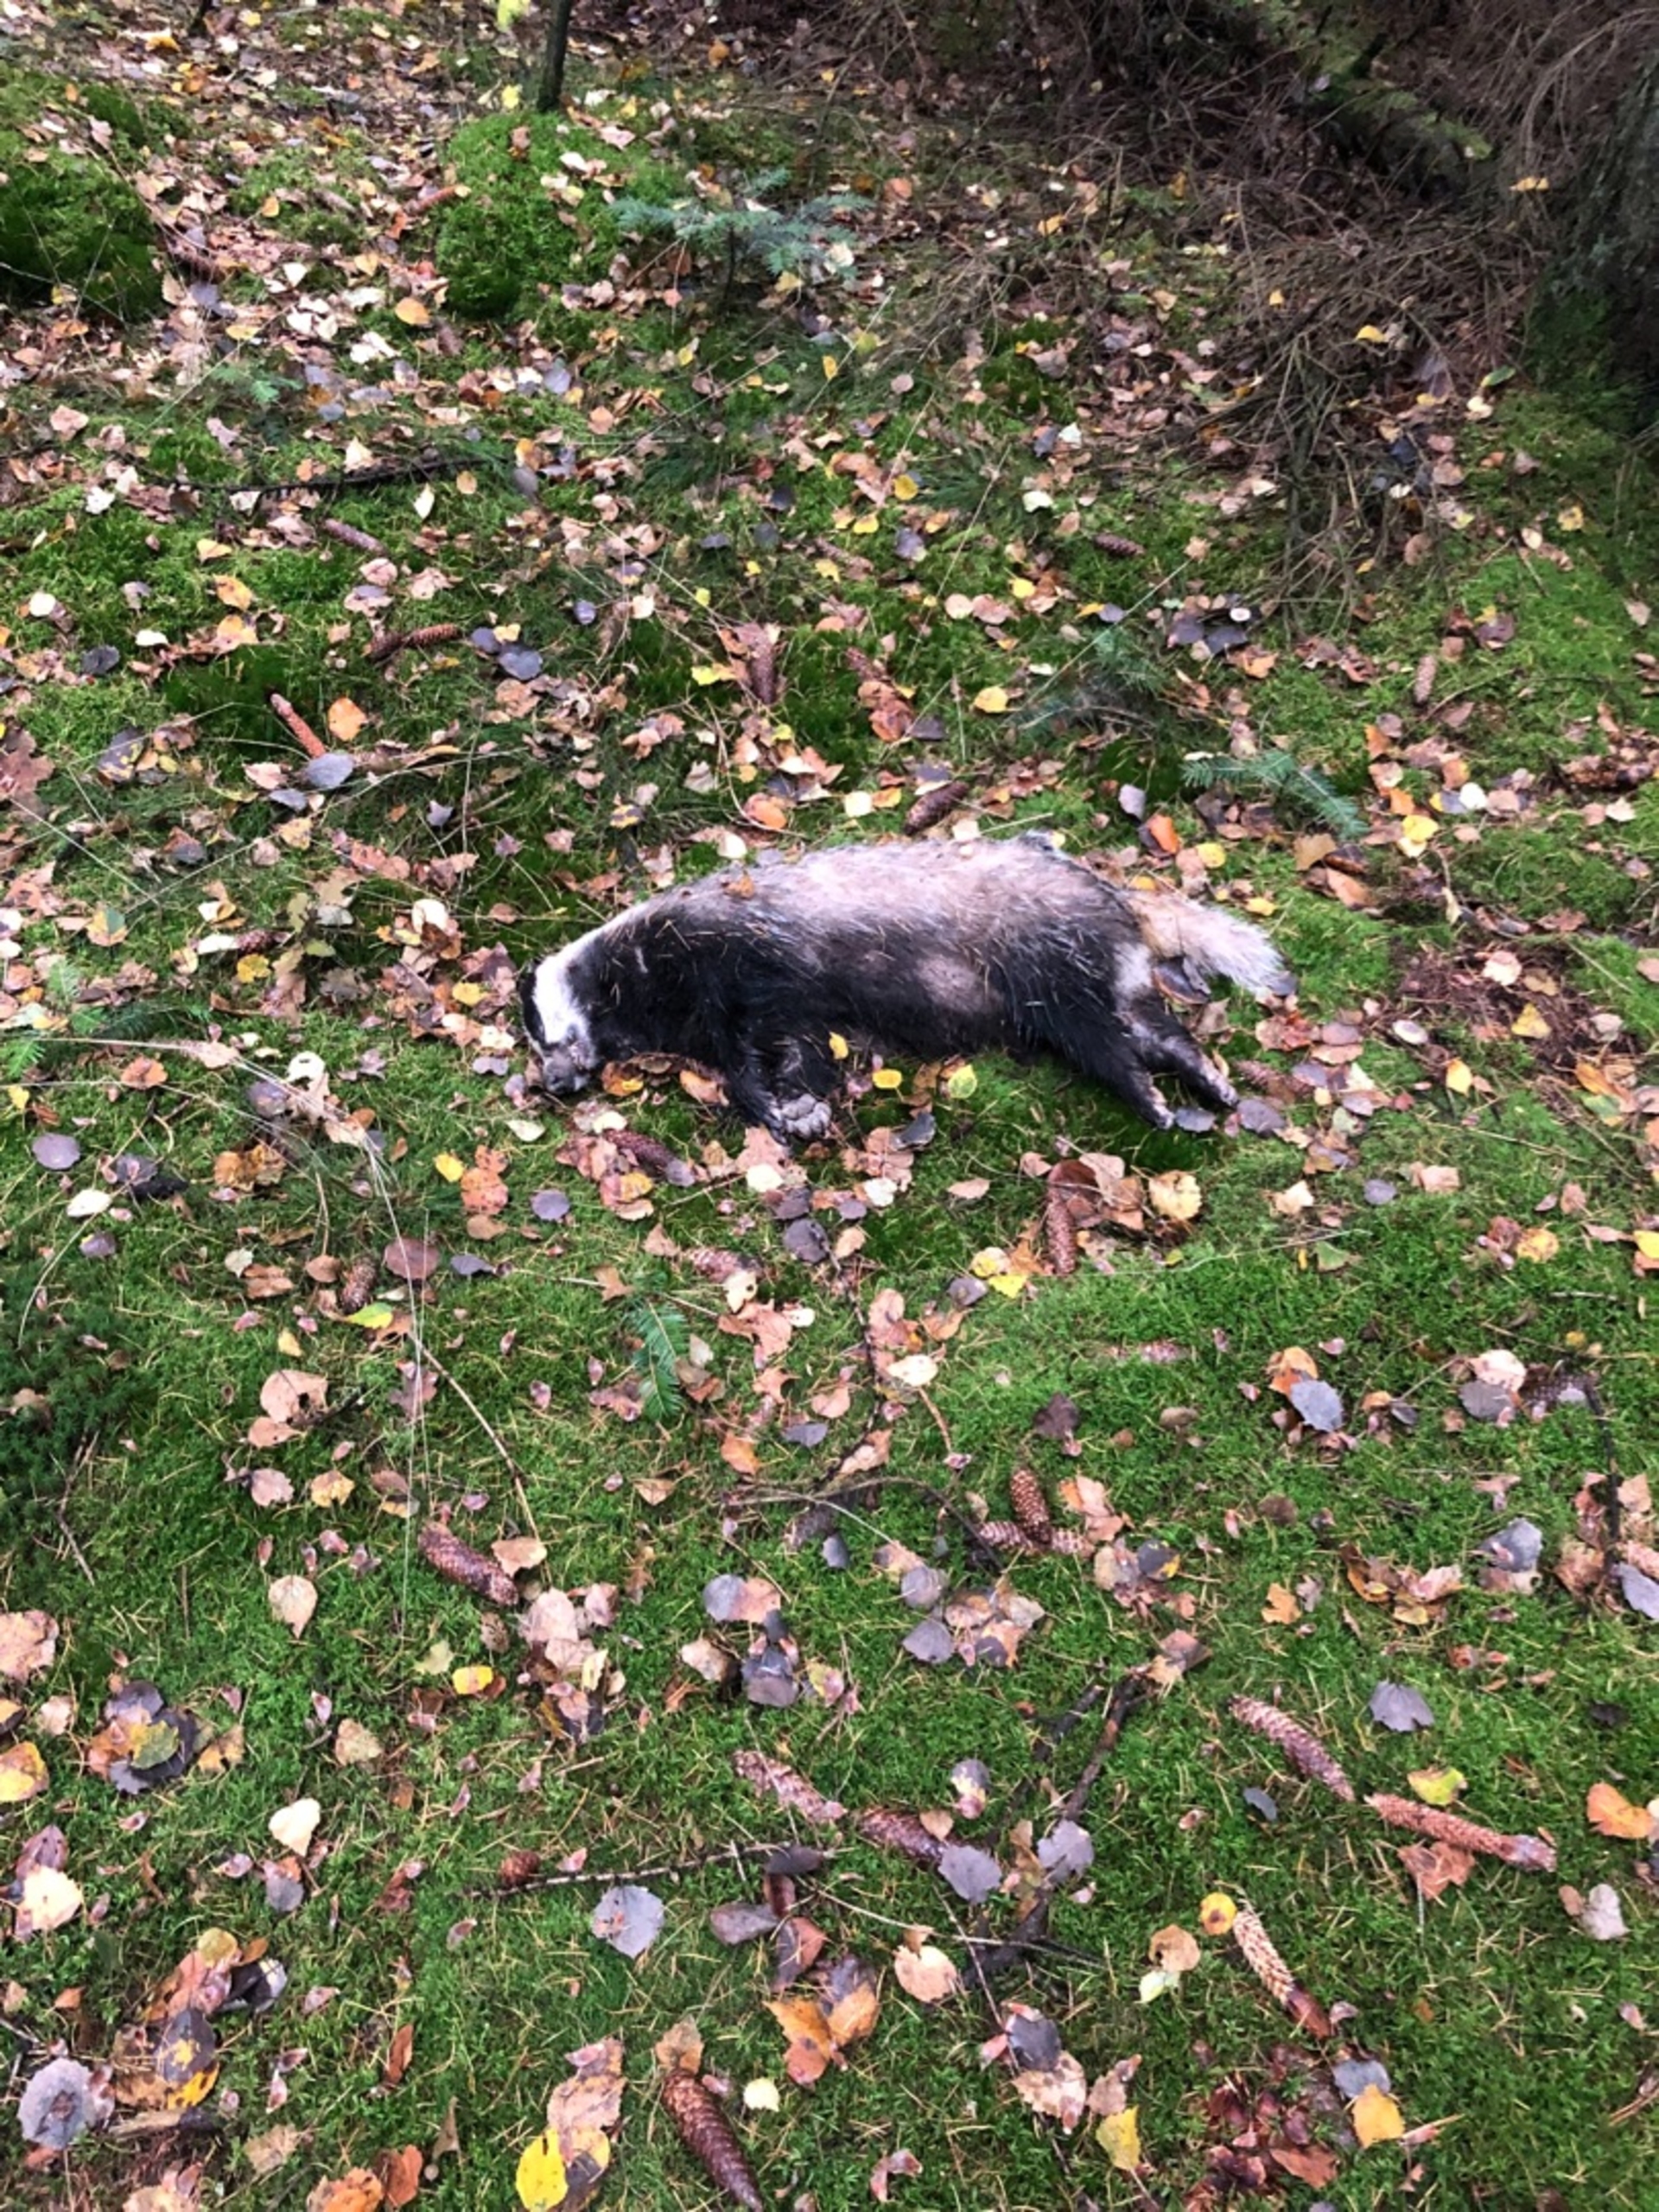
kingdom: Animalia
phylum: Chordata
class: Mammalia
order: Carnivora
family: Mustelidae
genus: Meles
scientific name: Meles meles
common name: Grævling
